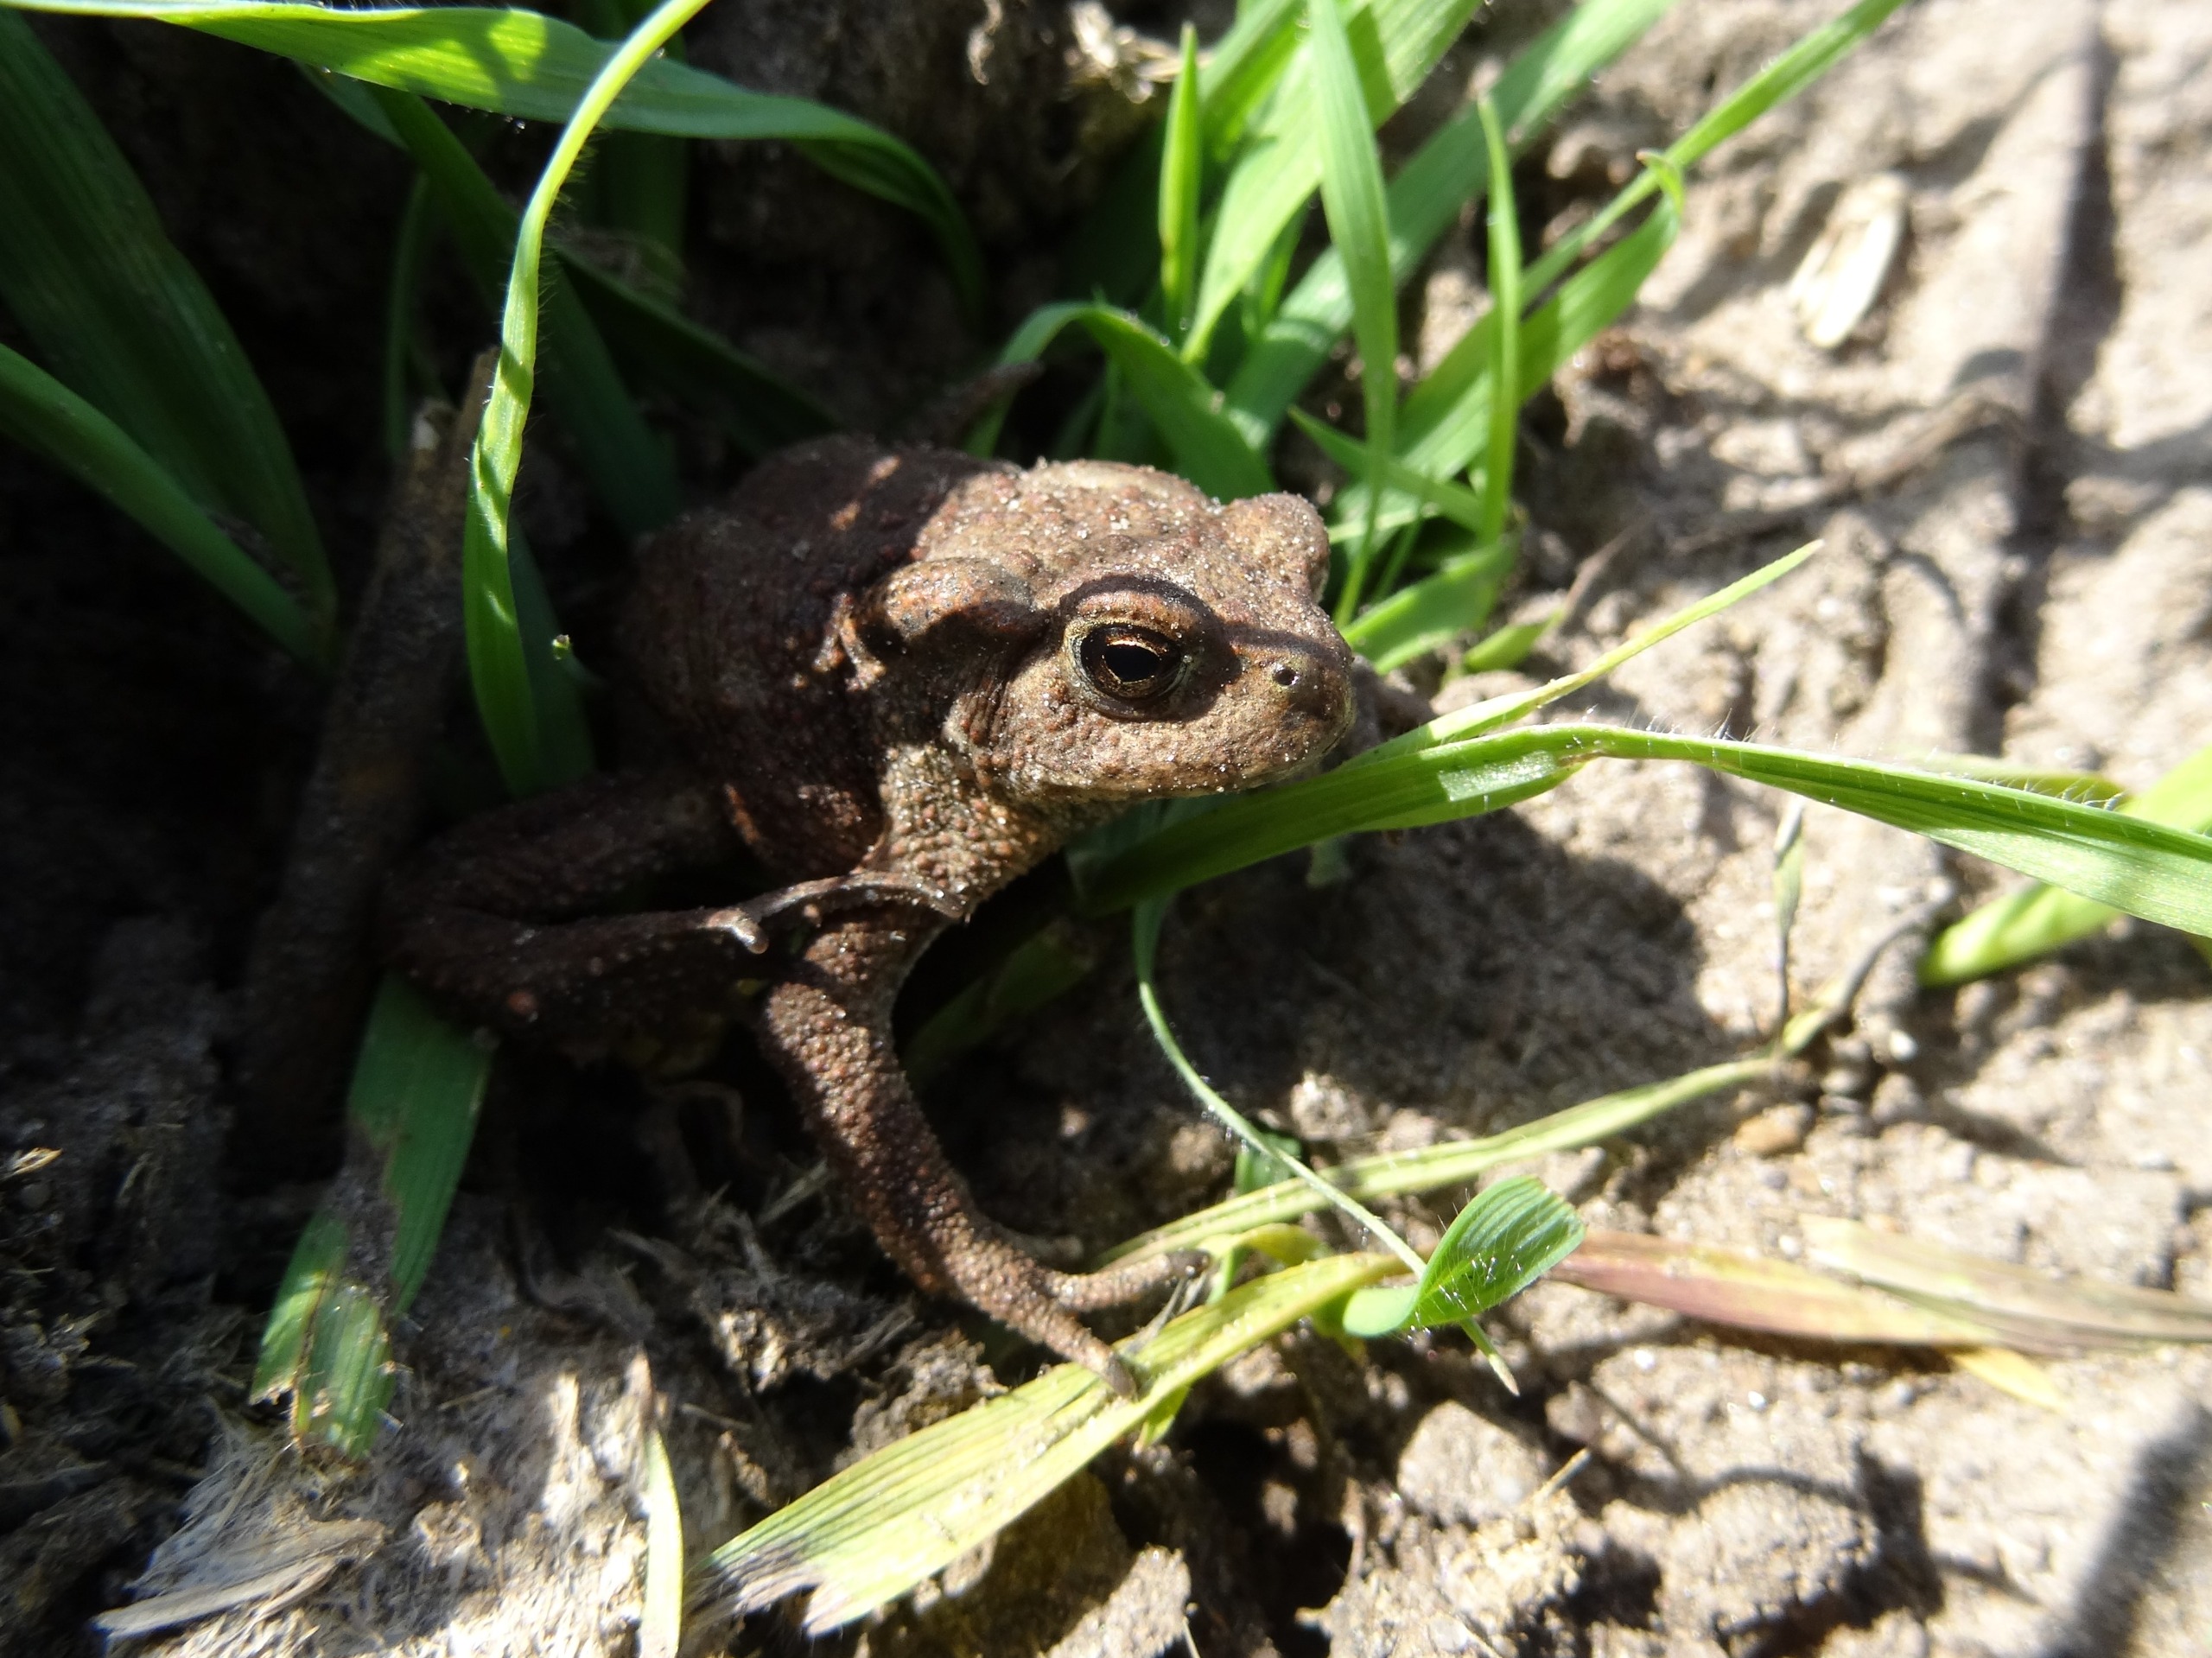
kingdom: Animalia
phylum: Chordata
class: Amphibia
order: Anura
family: Bufonidae
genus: Bufo
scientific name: Bufo bufo
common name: Skrubtudse
